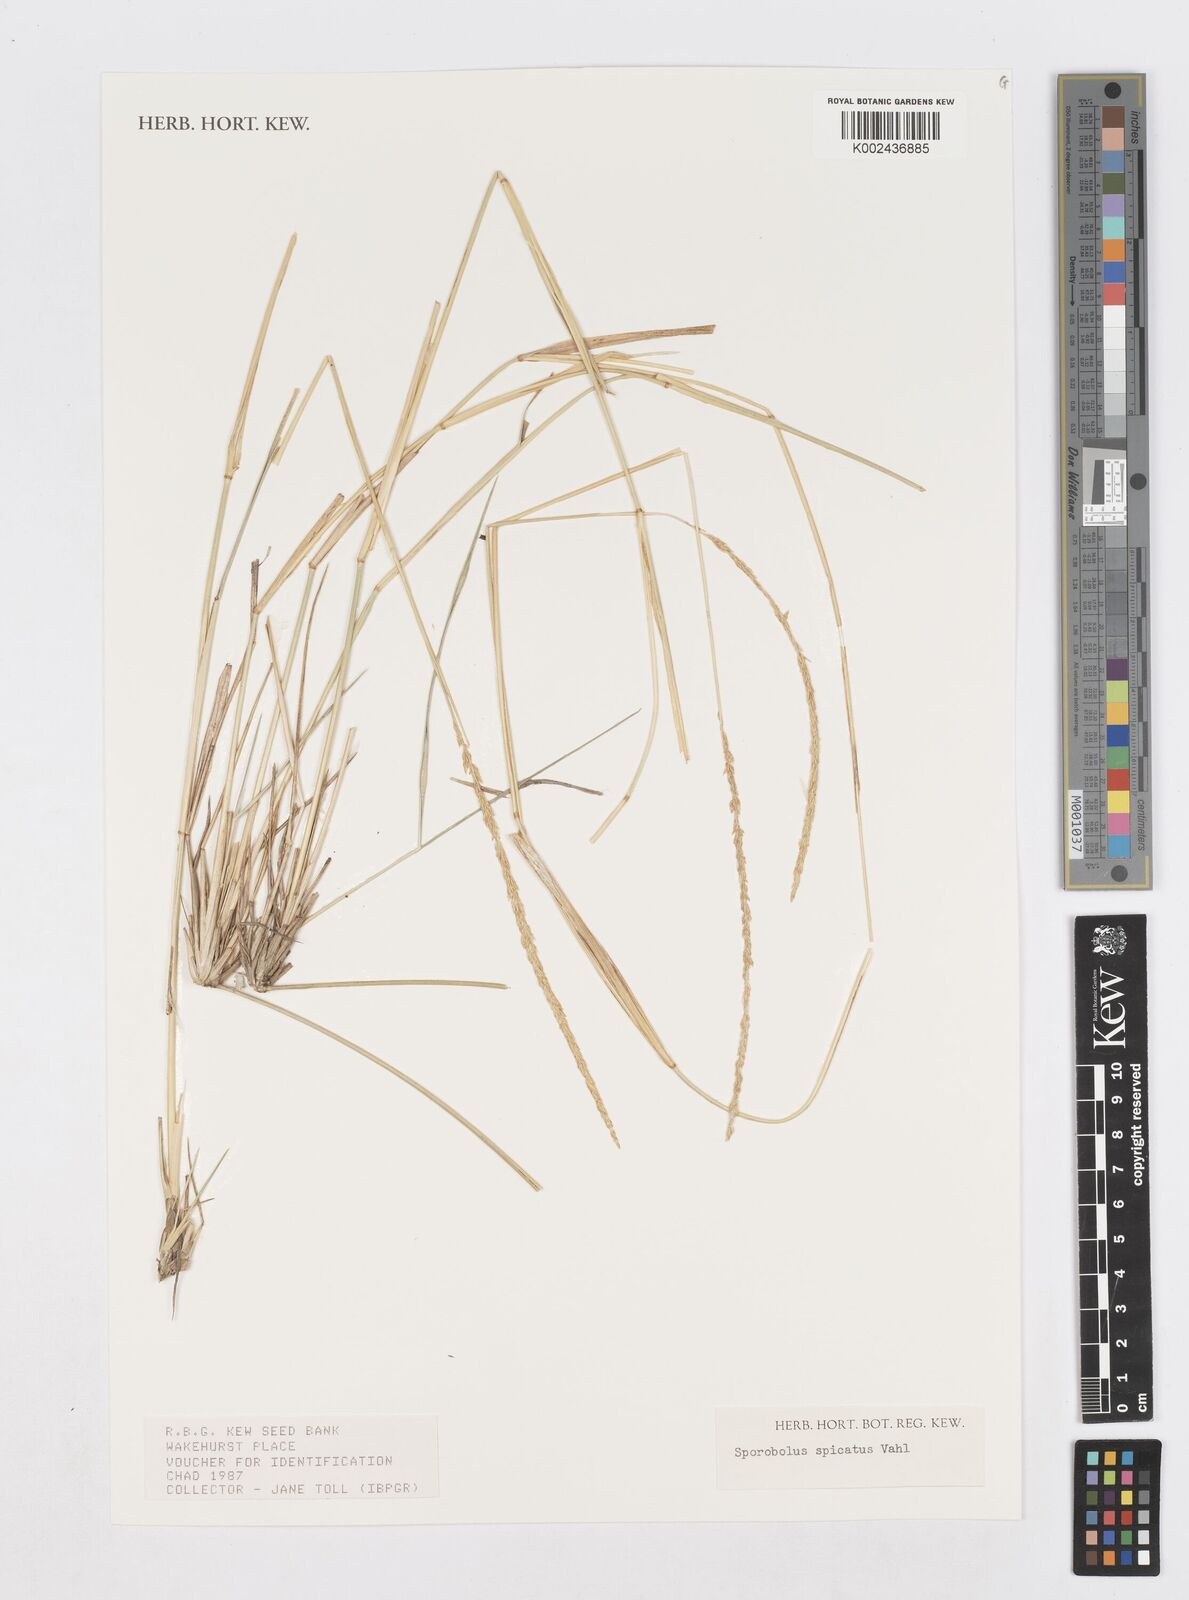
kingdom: Plantae
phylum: Tracheophyta
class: Liliopsida
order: Poales
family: Poaceae
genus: Sporobolus
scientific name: Sporobolus spicatus
